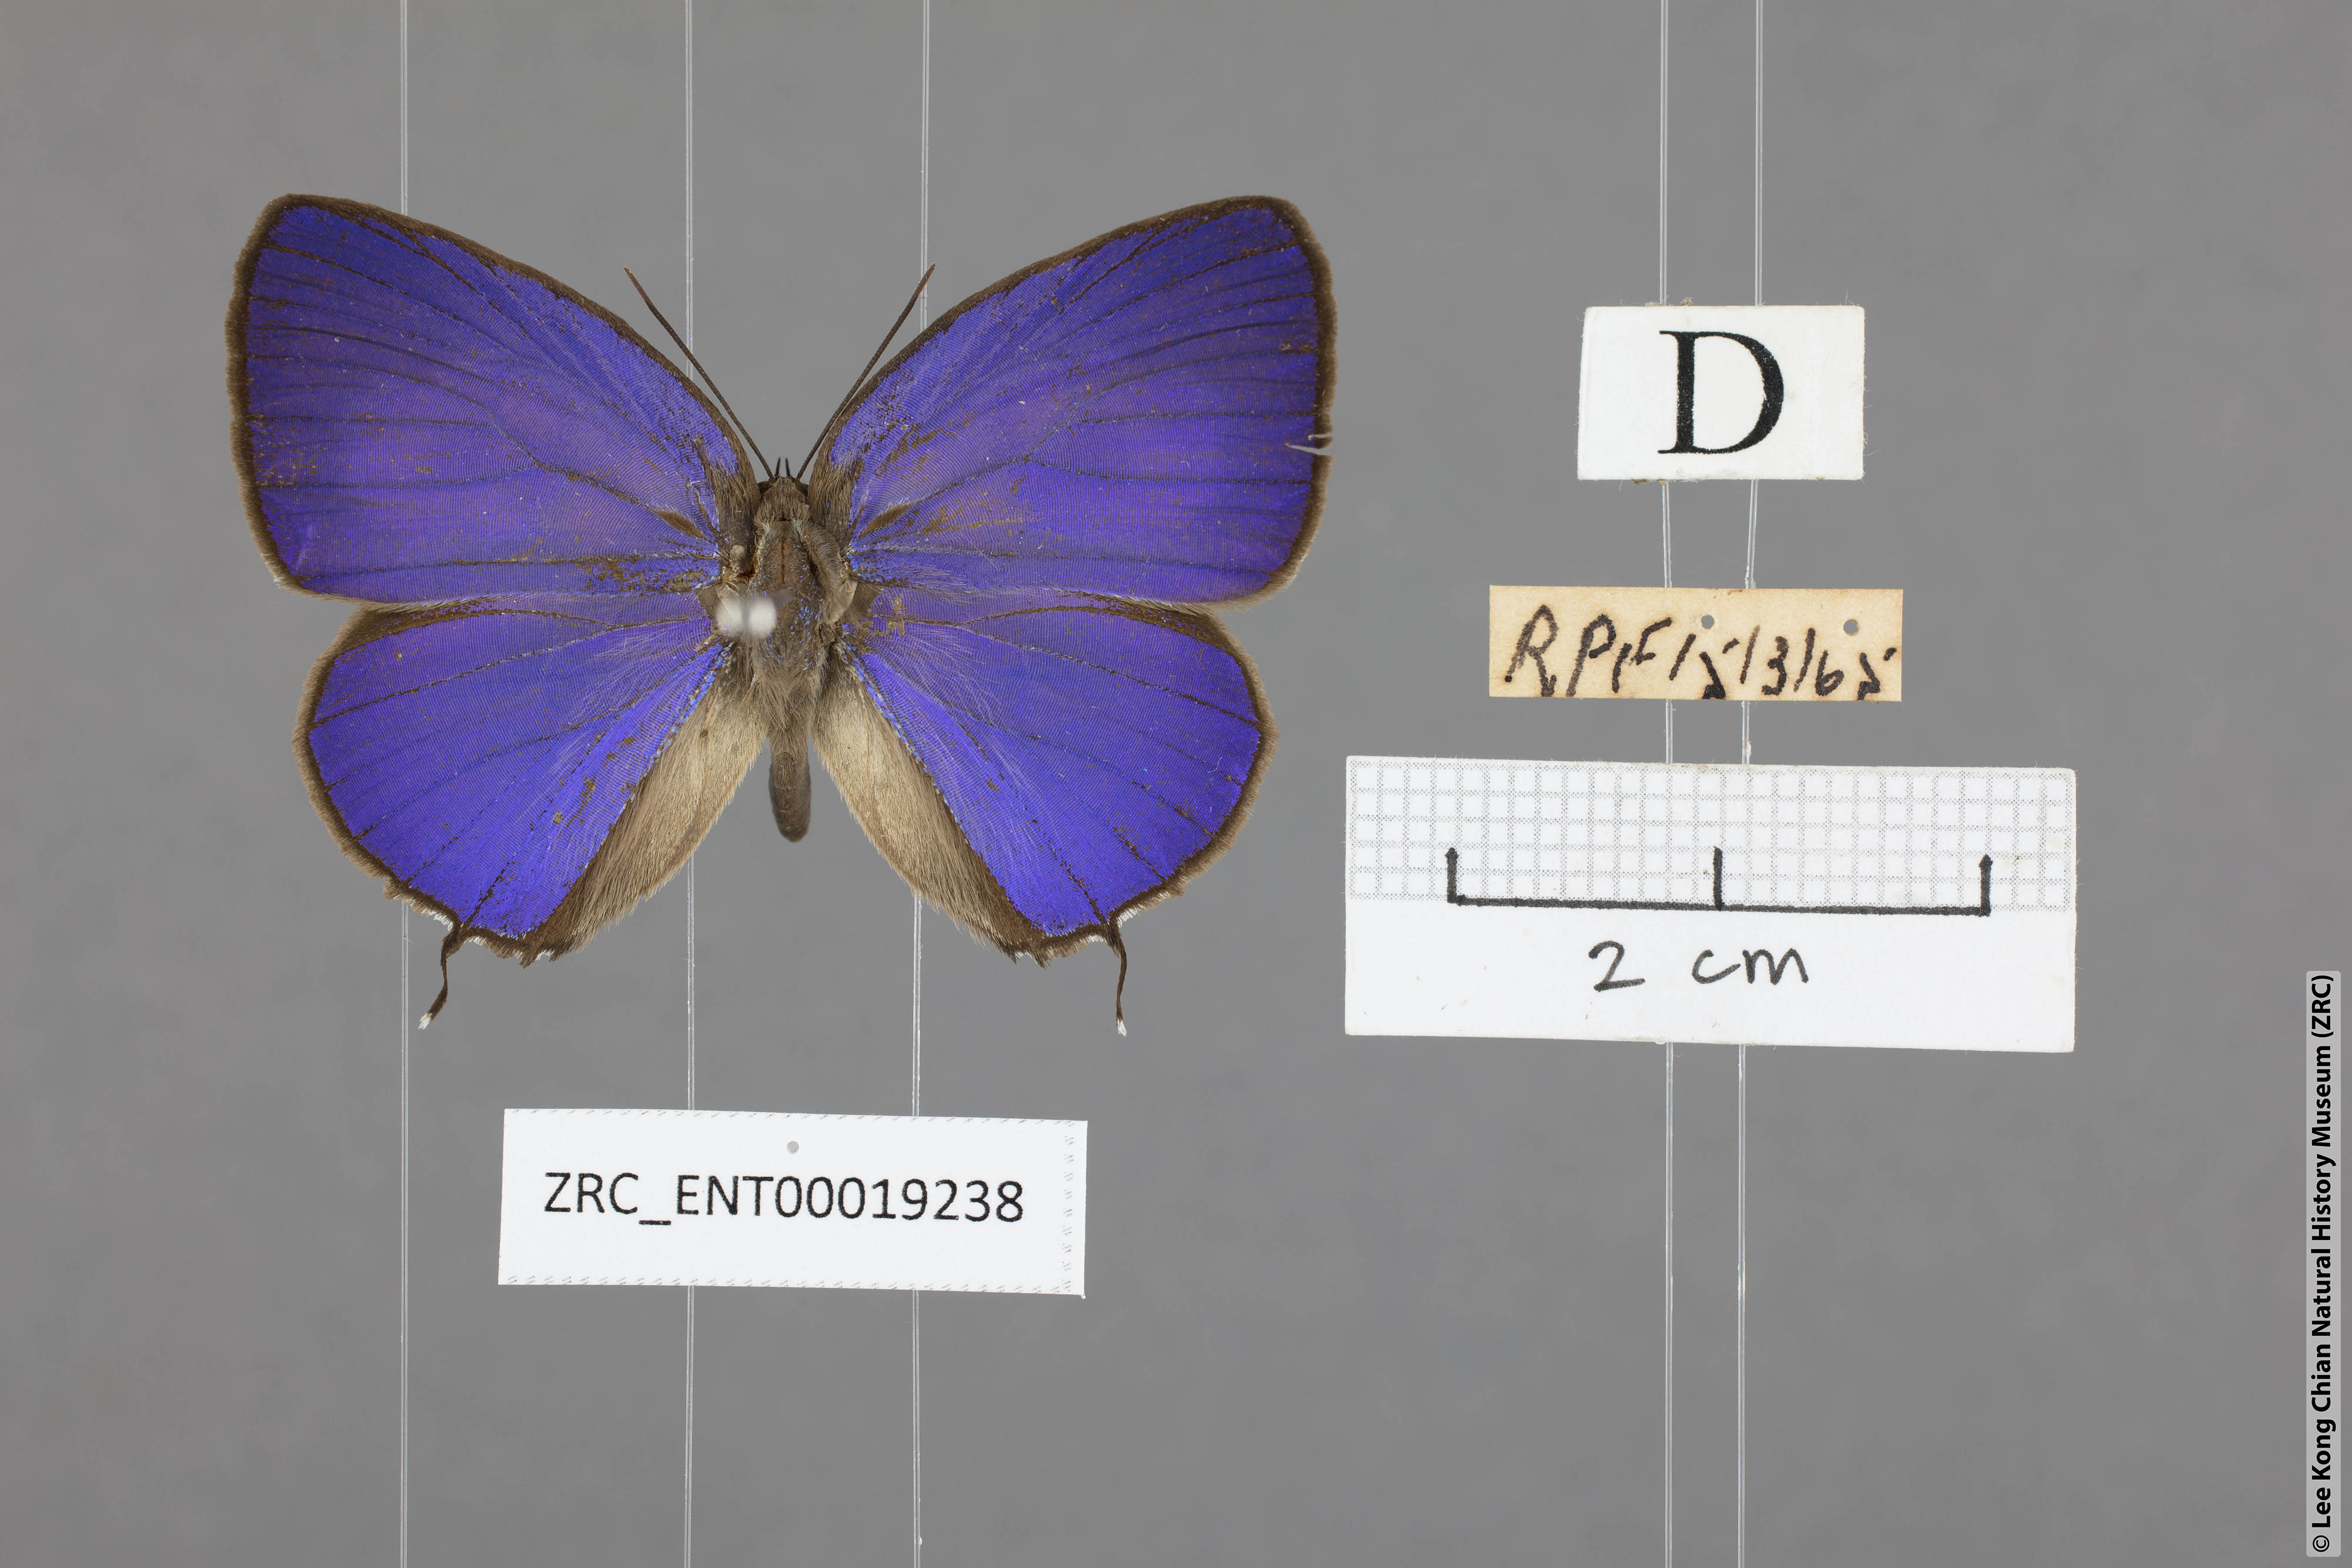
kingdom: Animalia
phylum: Arthropoda
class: Insecta
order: Lepidoptera
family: Lycaenidae
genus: Arhopala
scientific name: Arhopala atosia
